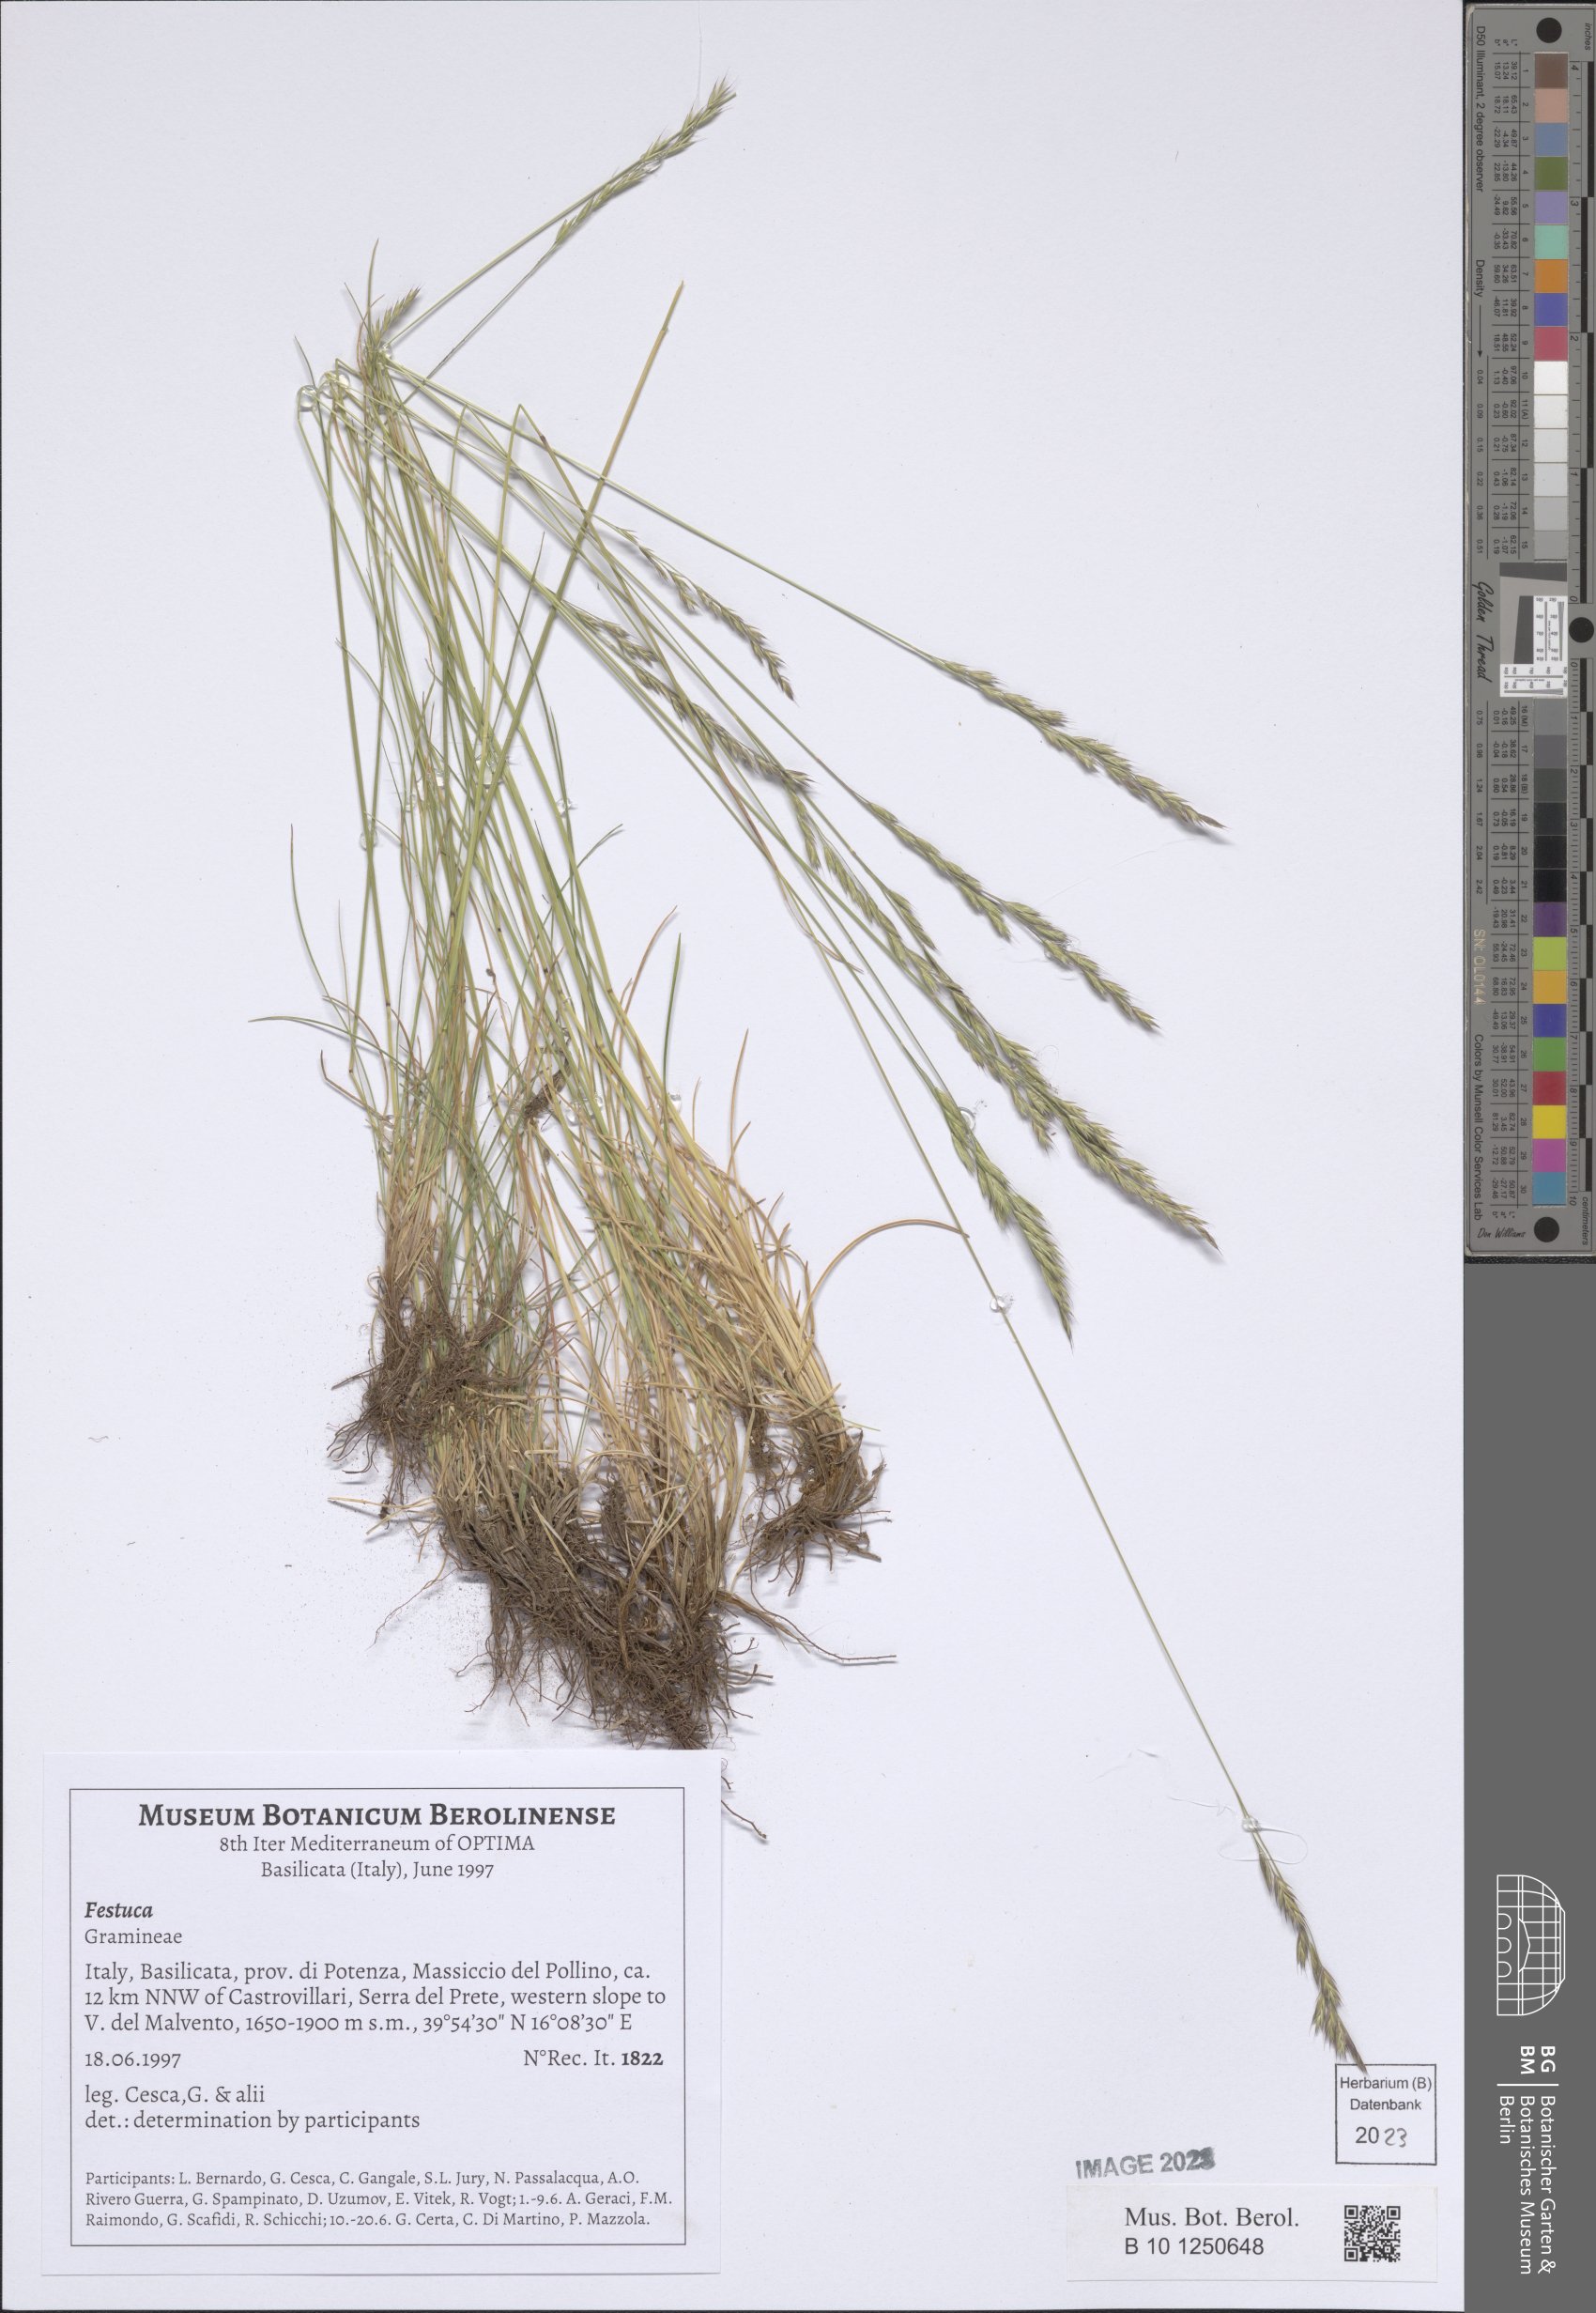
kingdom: Plantae
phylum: Tracheophyta
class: Liliopsida
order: Poales
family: Poaceae
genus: Festuca
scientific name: Festuca
